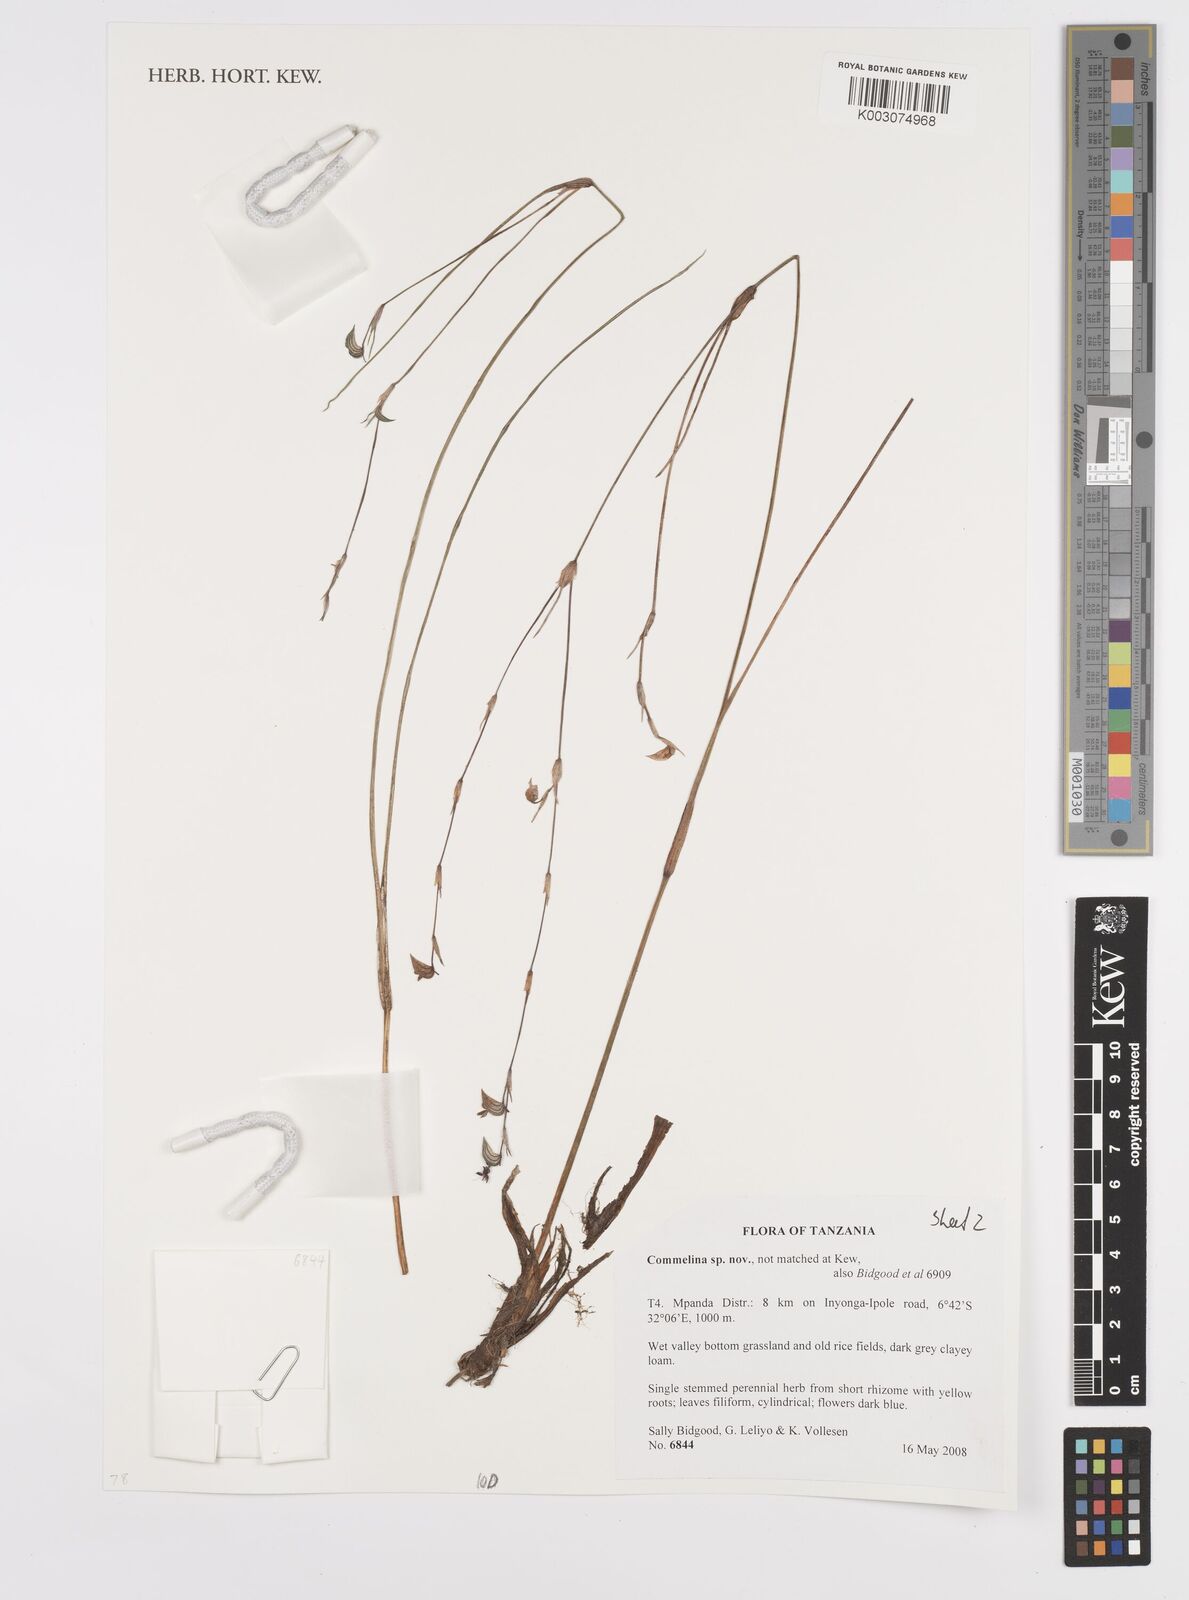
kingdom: Plantae
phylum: Tracheophyta
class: Liliopsida
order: Commelinales
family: Commelinaceae
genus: Commelina
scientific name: Commelina
